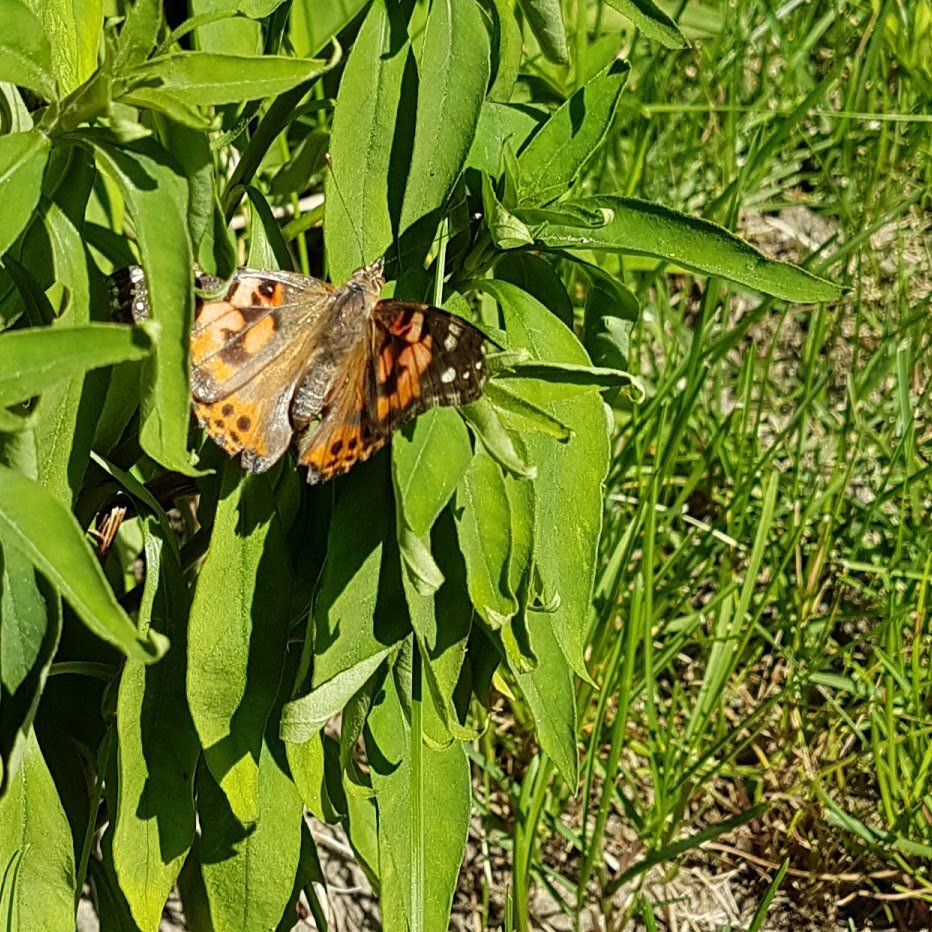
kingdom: Animalia
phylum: Arthropoda
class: Insecta
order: Lepidoptera
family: Nymphalidae
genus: Vanessa
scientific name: Vanessa cardui
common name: Painted Lady
